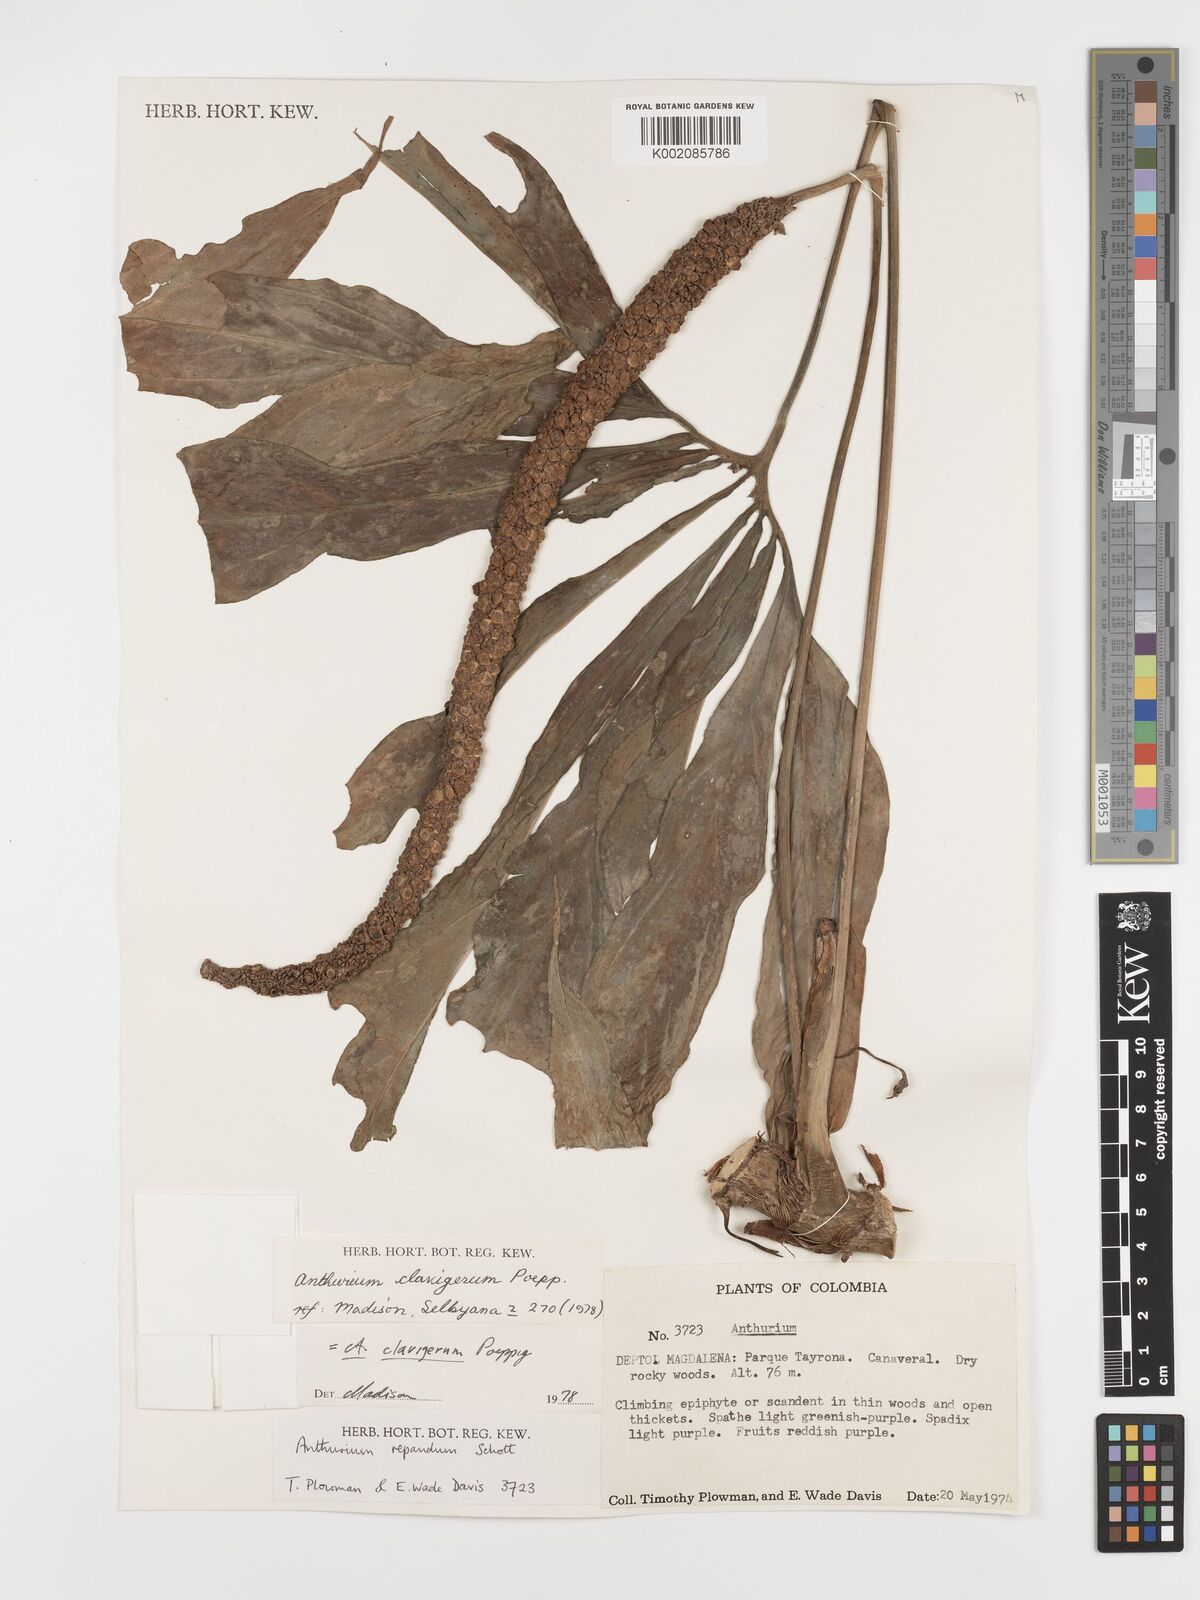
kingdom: Plantae
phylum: Tracheophyta
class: Liliopsida
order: Alismatales
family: Araceae
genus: Anthurium
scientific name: Anthurium clavigerum
